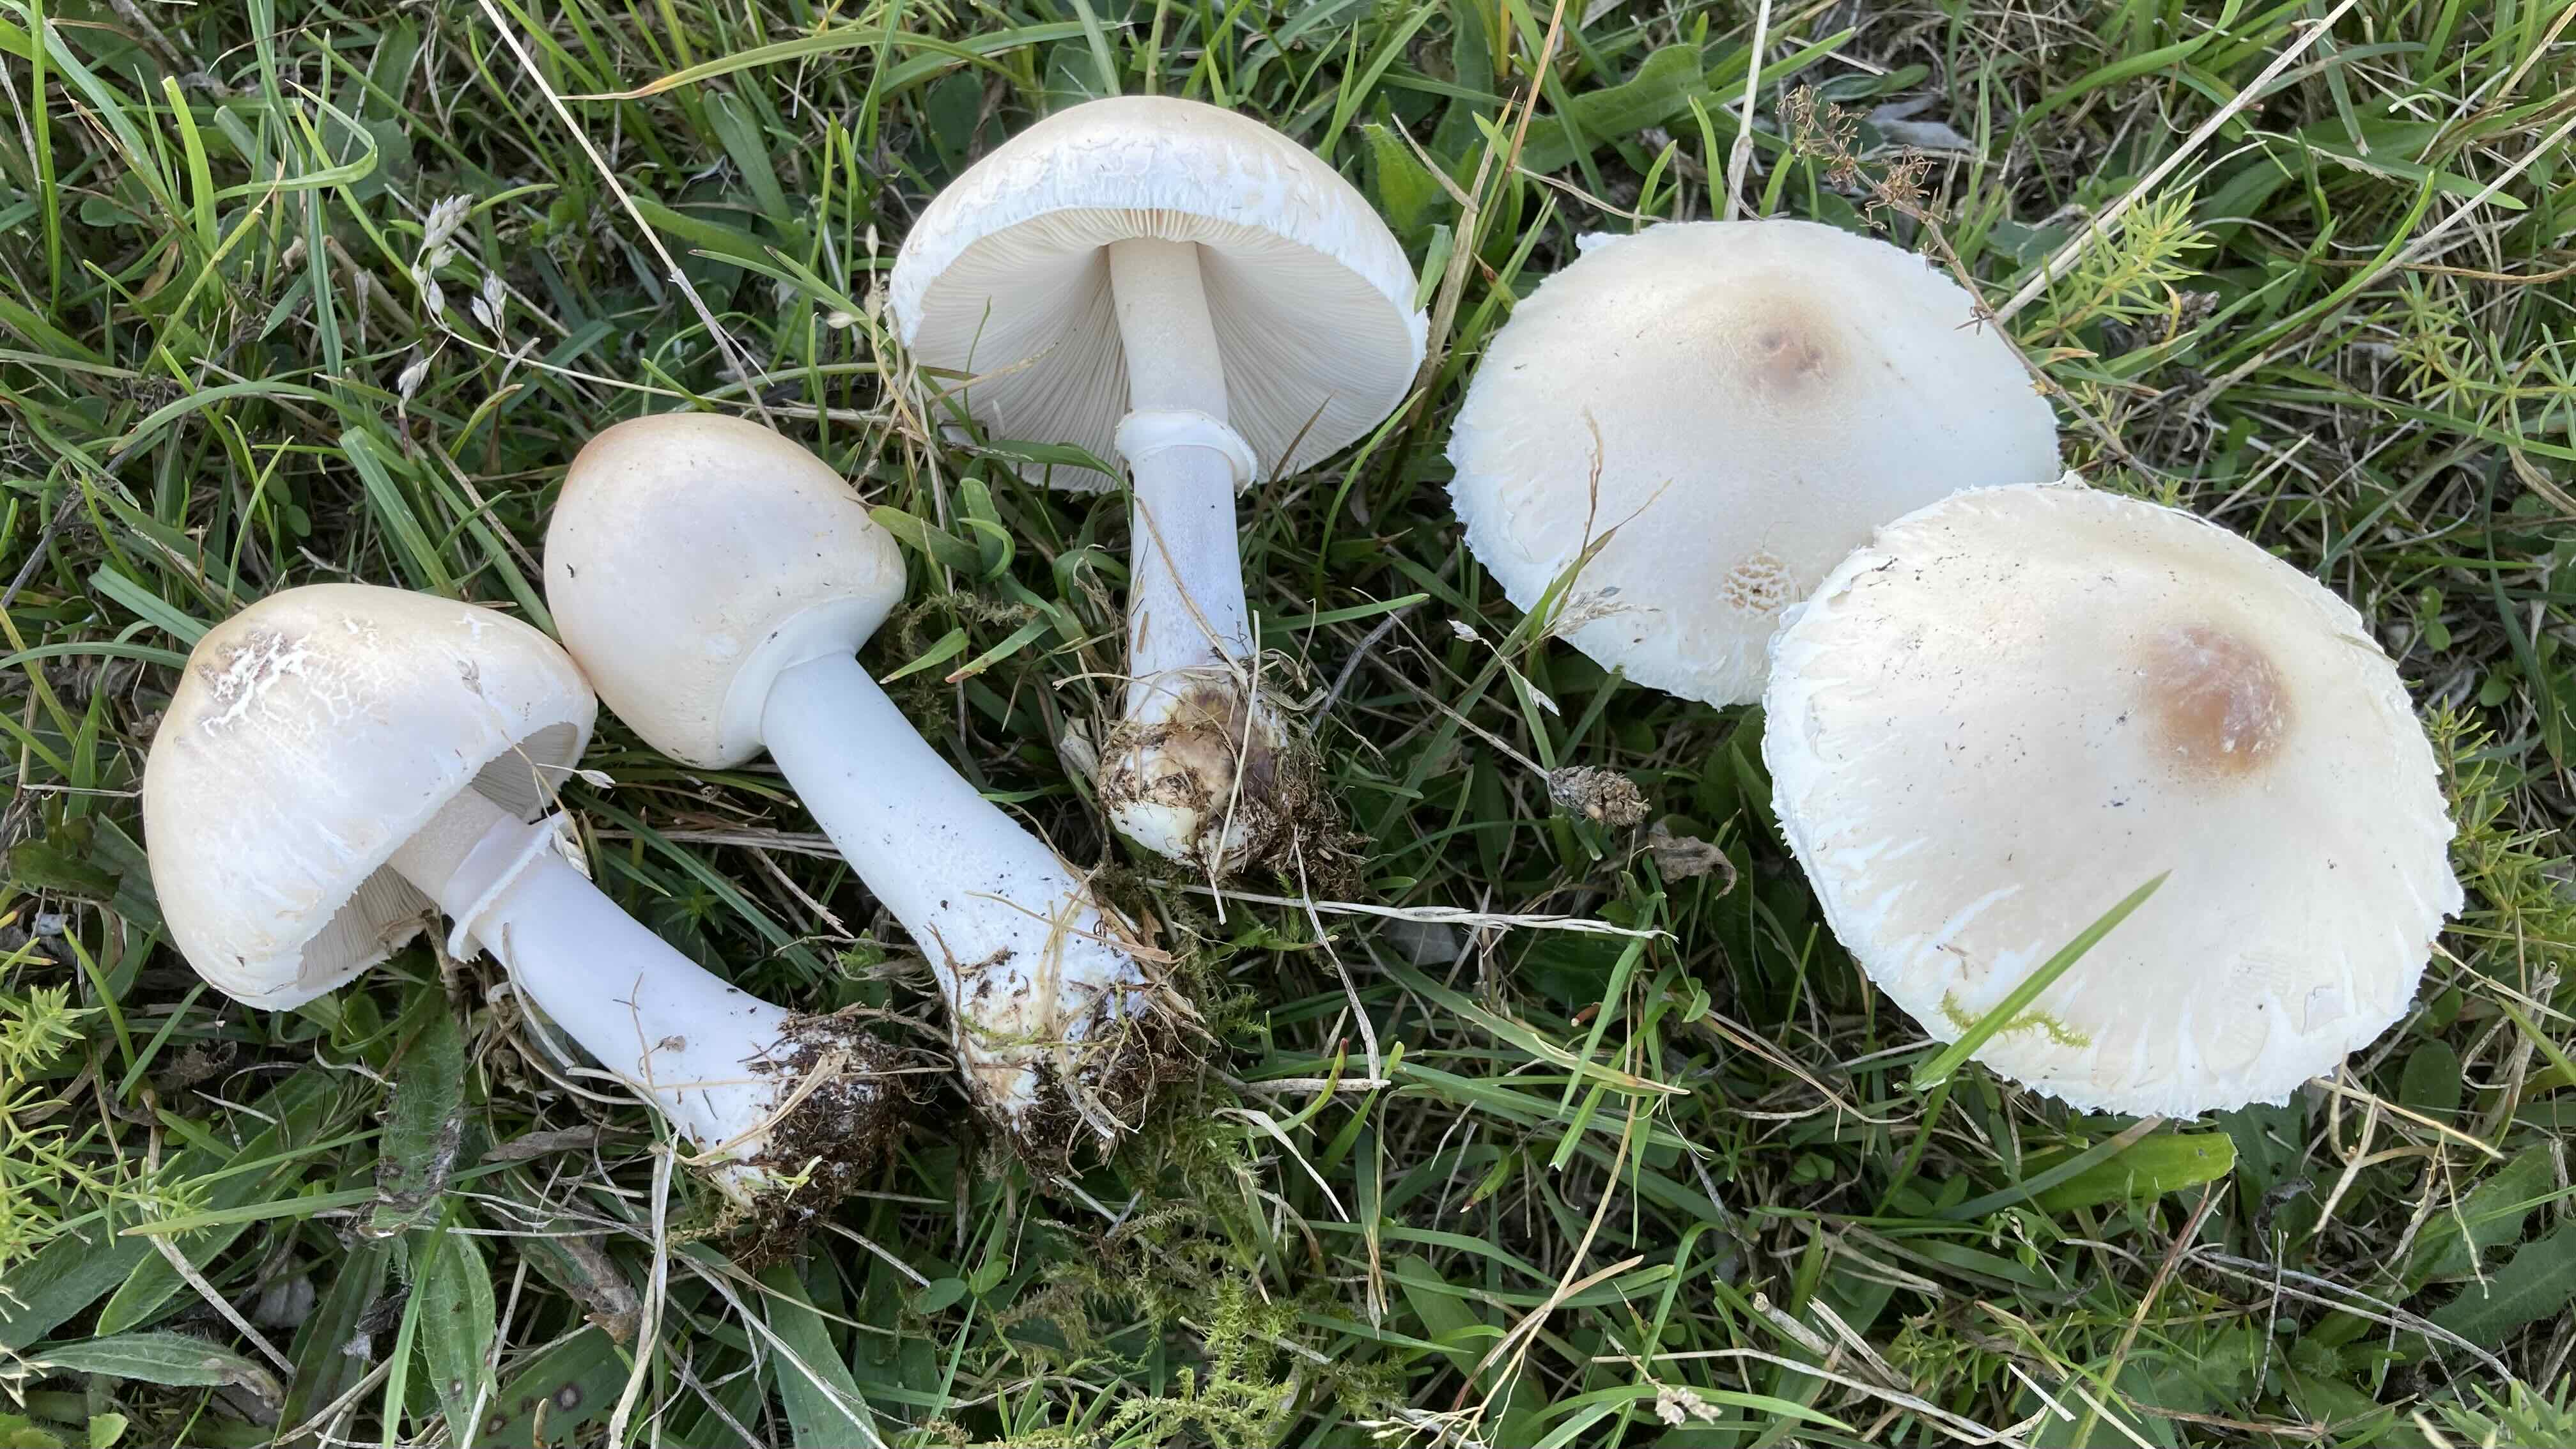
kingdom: Fungi
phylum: Basidiomycota
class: Agaricomycetes
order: Agaricales
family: Agaricaceae
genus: Macrolepiota
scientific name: Macrolepiota excoriata
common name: mark-kæmpeparasolhat
